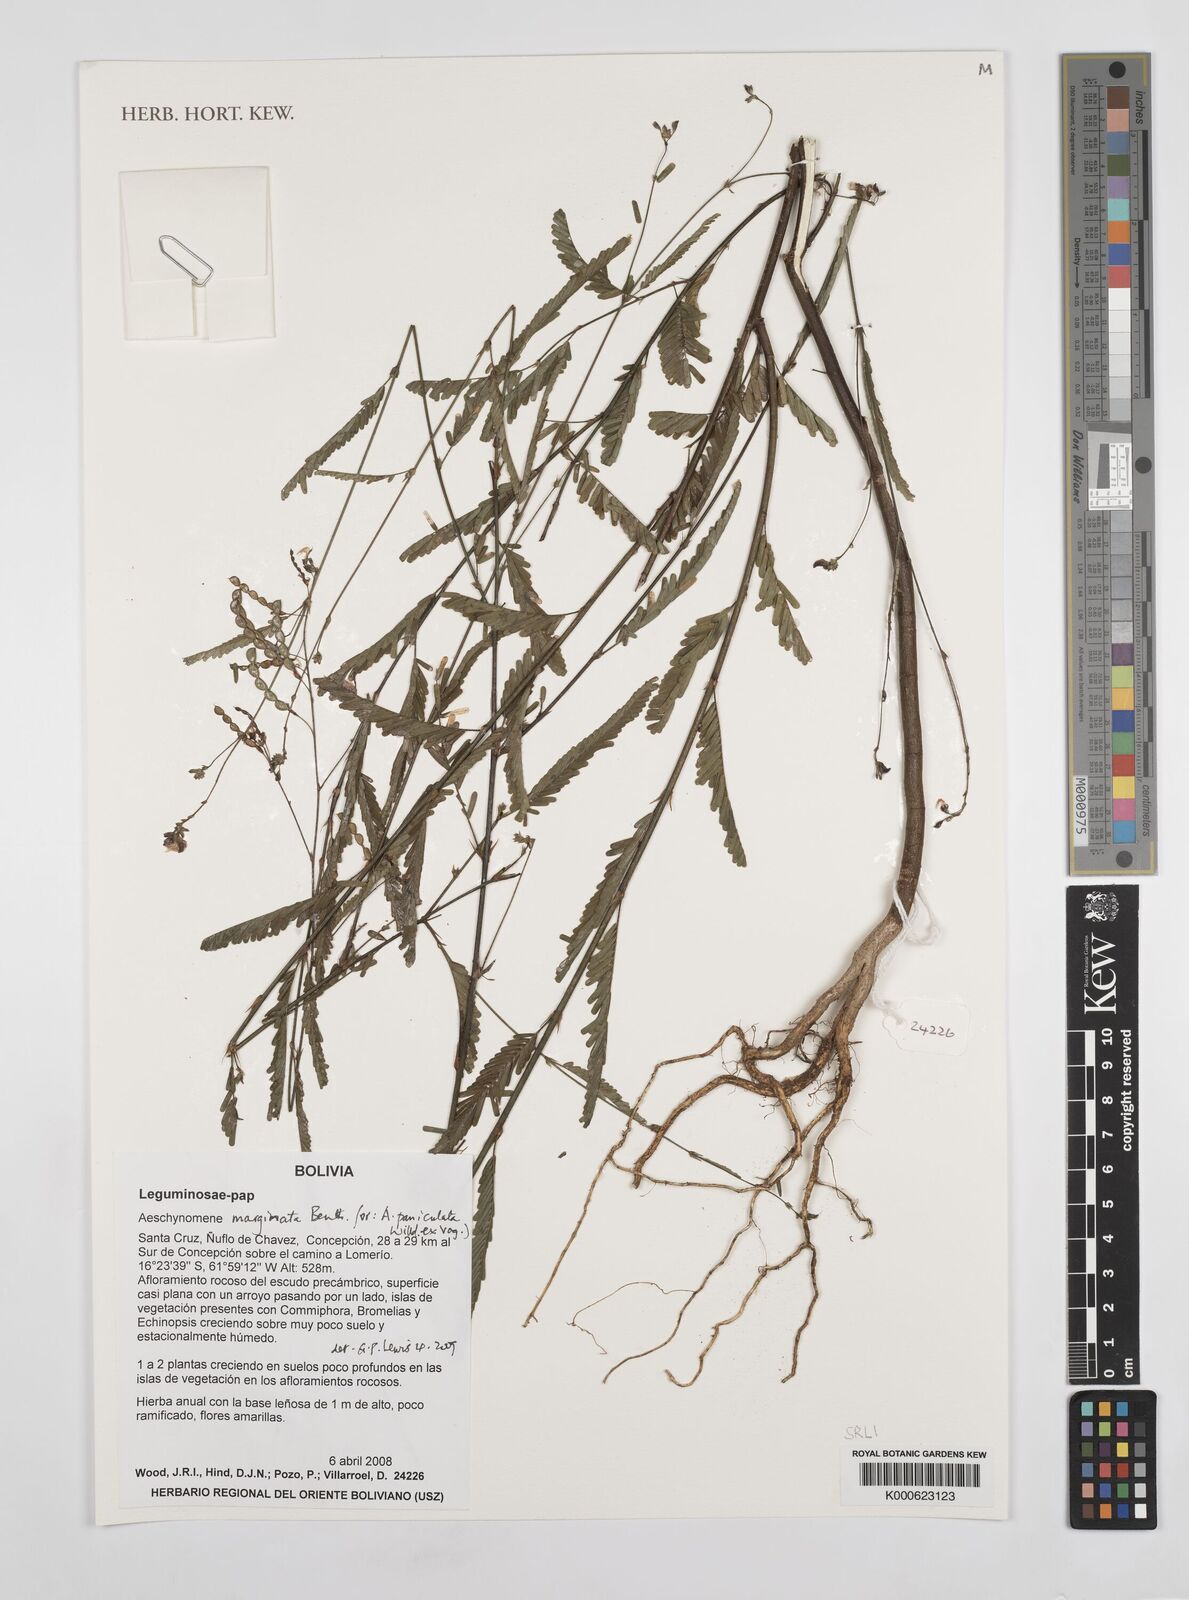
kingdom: Plantae
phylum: Tracheophyta
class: Magnoliopsida
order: Fabales
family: Fabaceae
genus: Ctenodon
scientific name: Ctenodon marginatus
